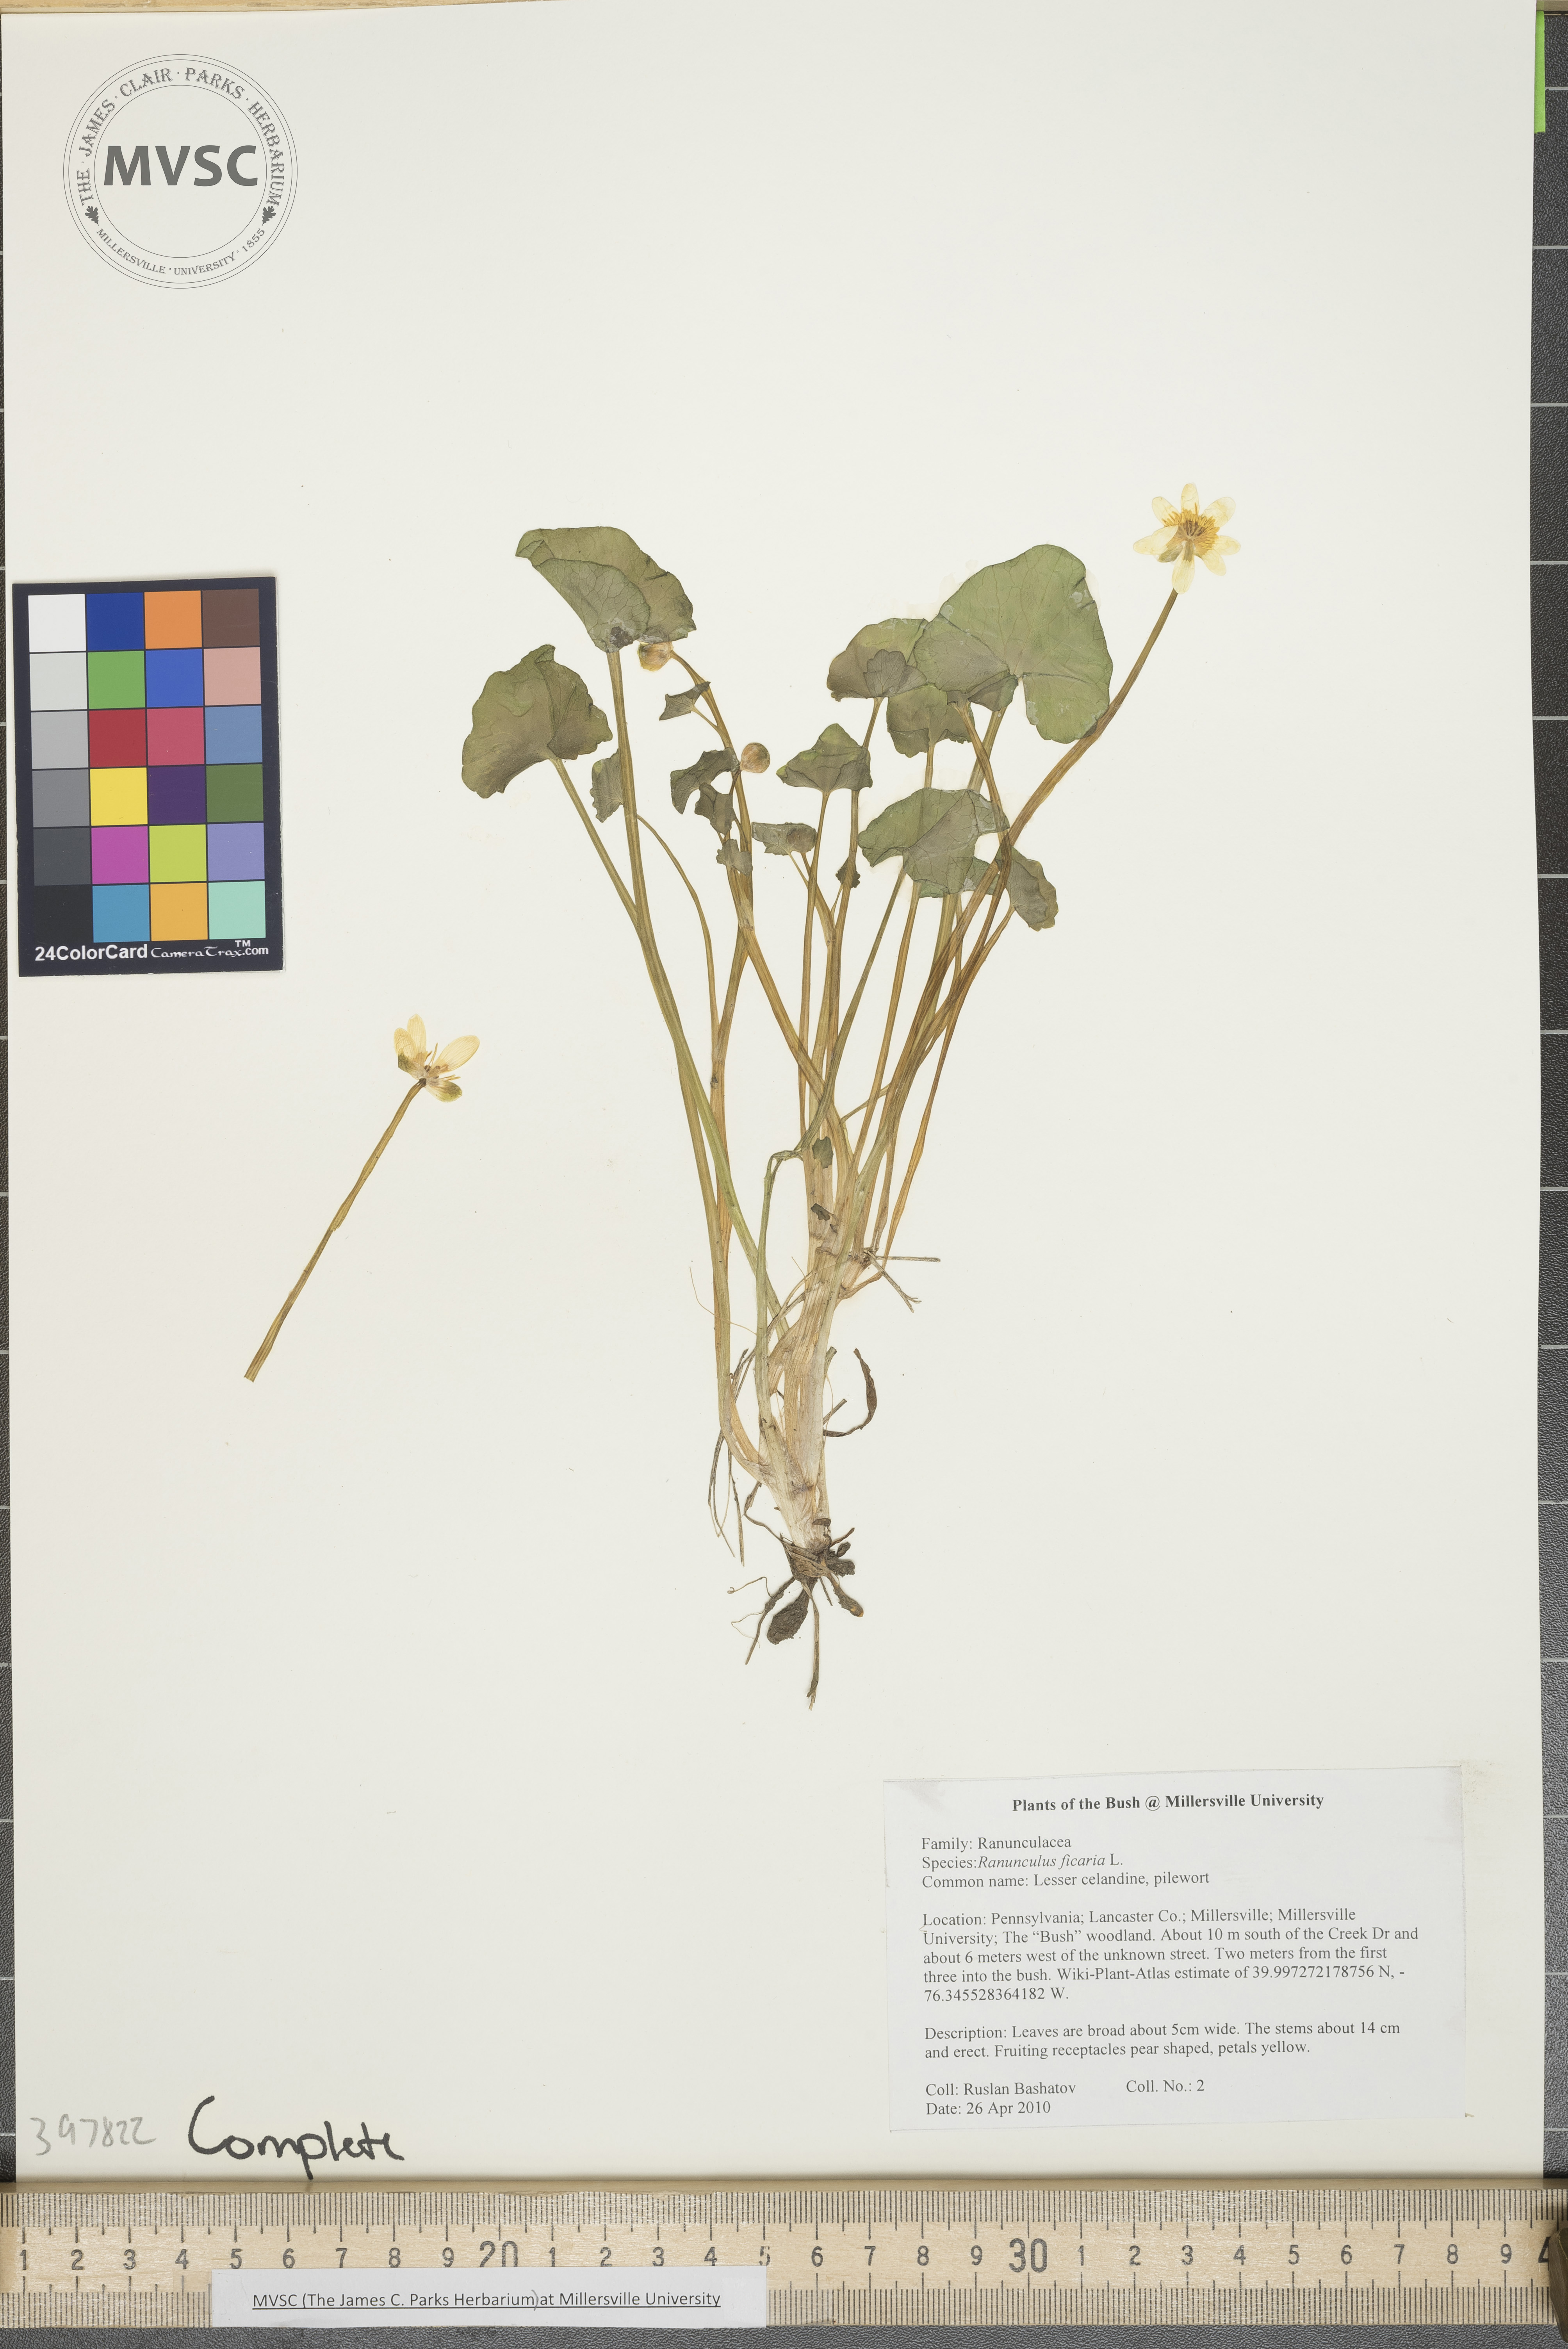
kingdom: Plantae
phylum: Tracheophyta
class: Magnoliopsida
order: Ranunculales
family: Ranunculaceae
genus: Ranunculus
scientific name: Ranunculus ficaria
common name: Lesser celandine
